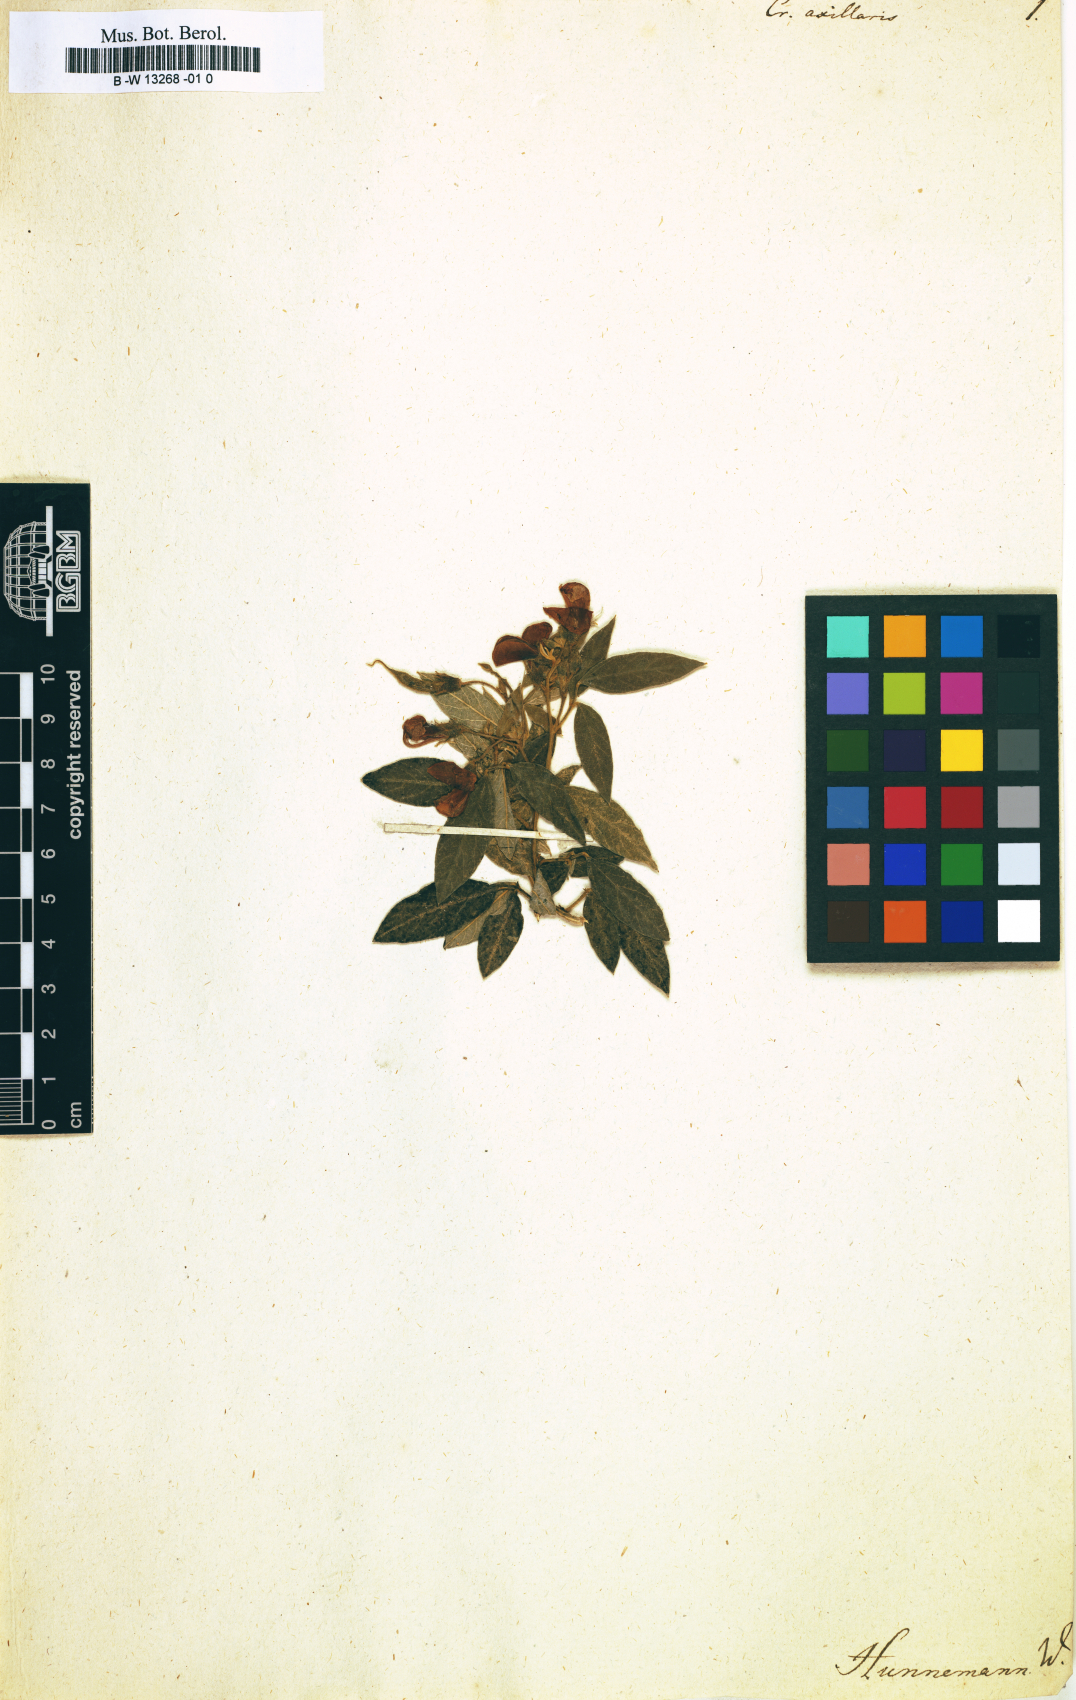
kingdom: Plantae
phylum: Tracheophyta
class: Magnoliopsida
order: Fabales
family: Fabaceae
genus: Crotalaria
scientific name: Crotalaria axillaris
